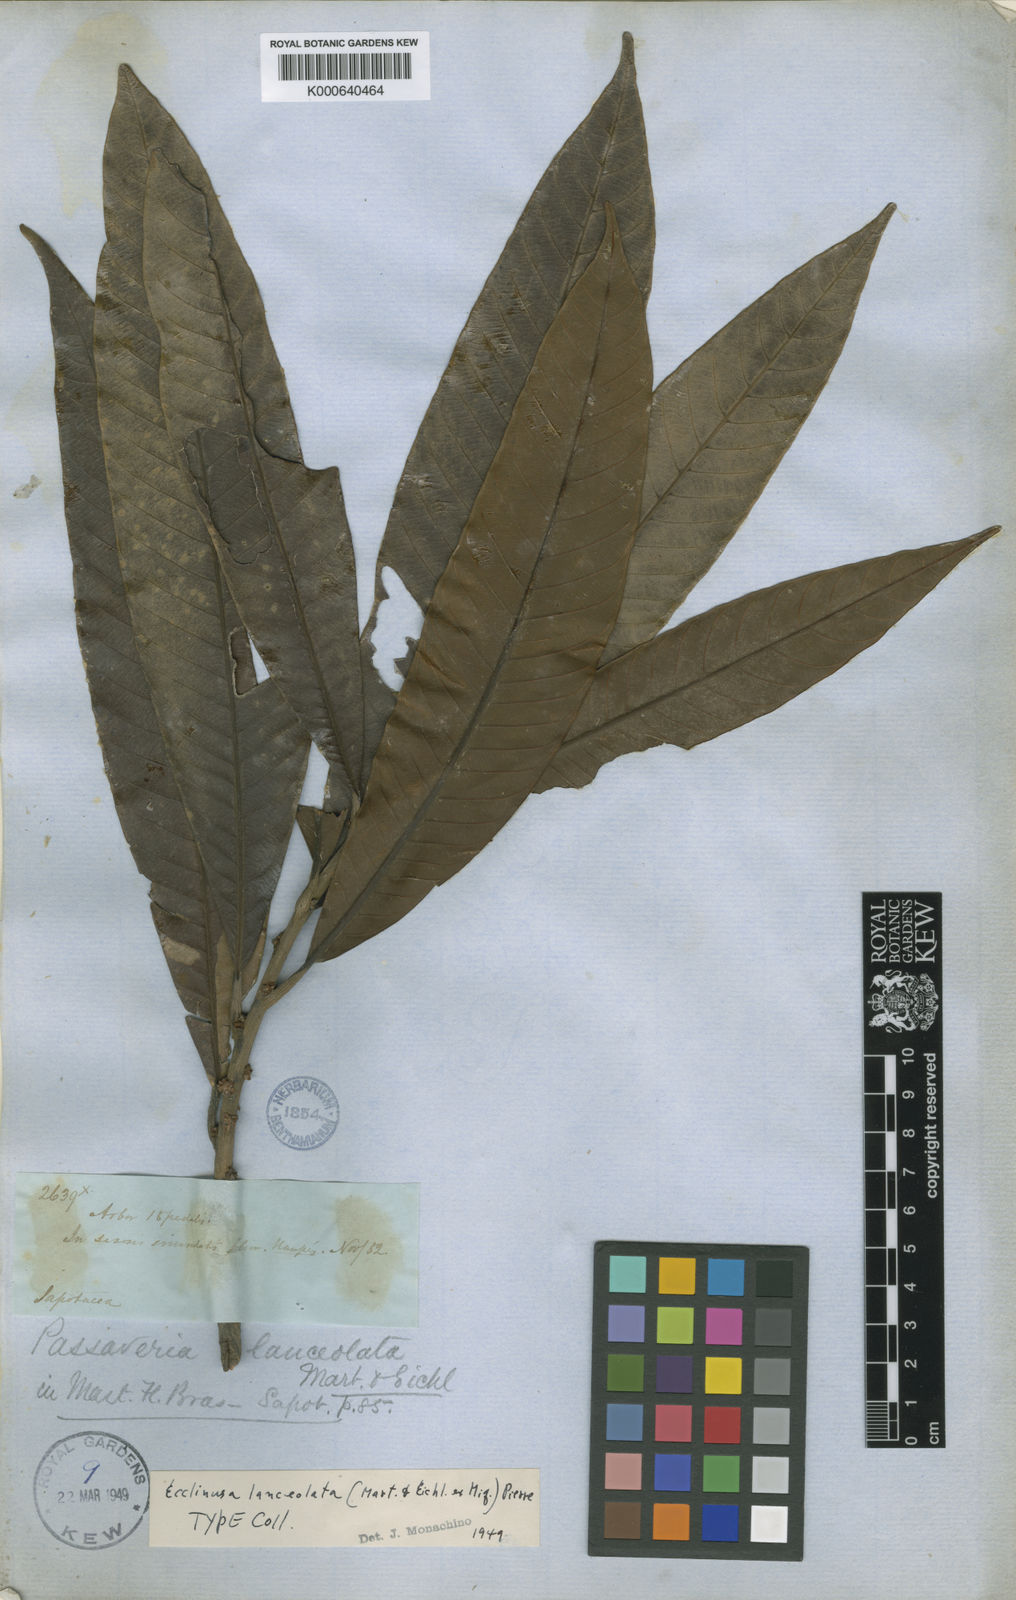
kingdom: Plantae
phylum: Tracheophyta
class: Magnoliopsida
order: Ericales
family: Sapotaceae
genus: Ecclinusa
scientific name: Ecclinusa lanceolata
